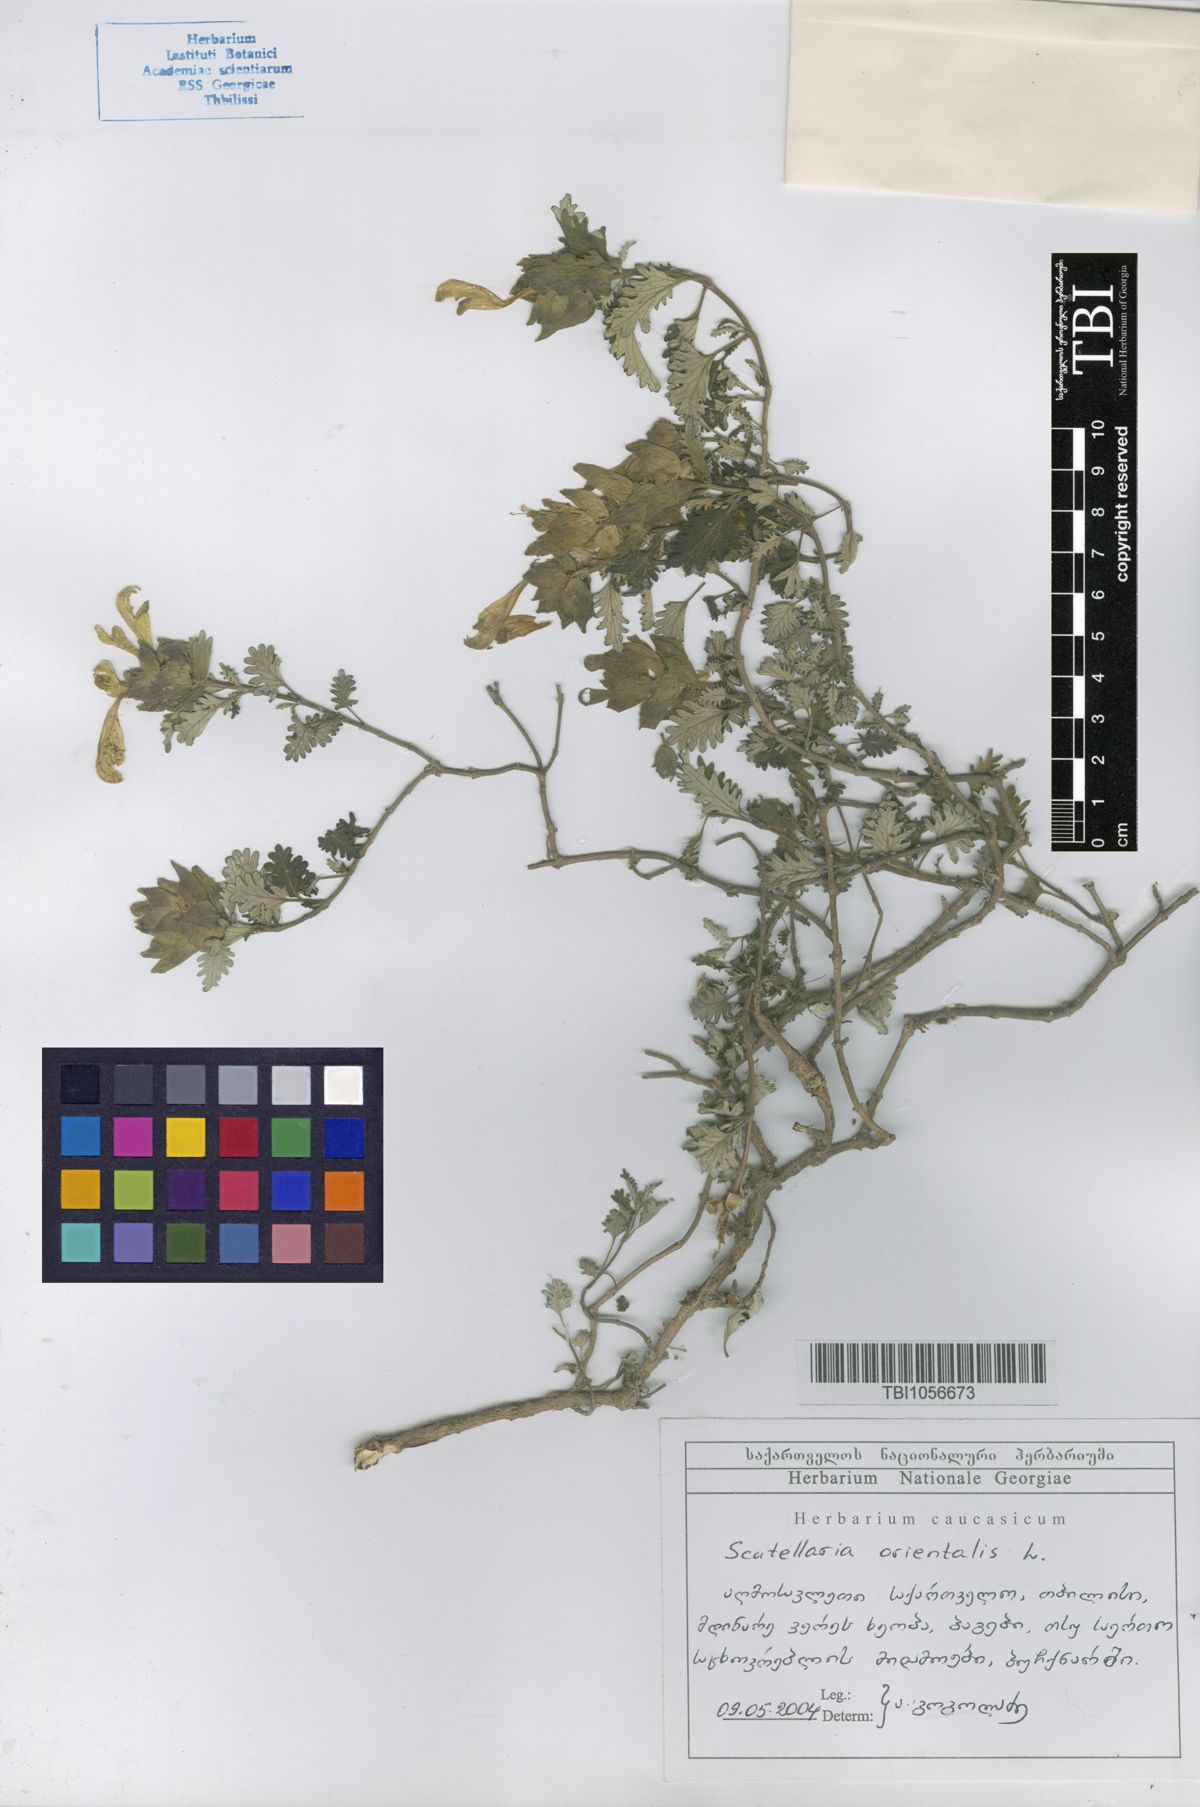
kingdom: Plantae
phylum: Tracheophyta
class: Magnoliopsida
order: Lamiales
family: Lamiaceae
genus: Scutellaria
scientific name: Scutellaria orientalis
